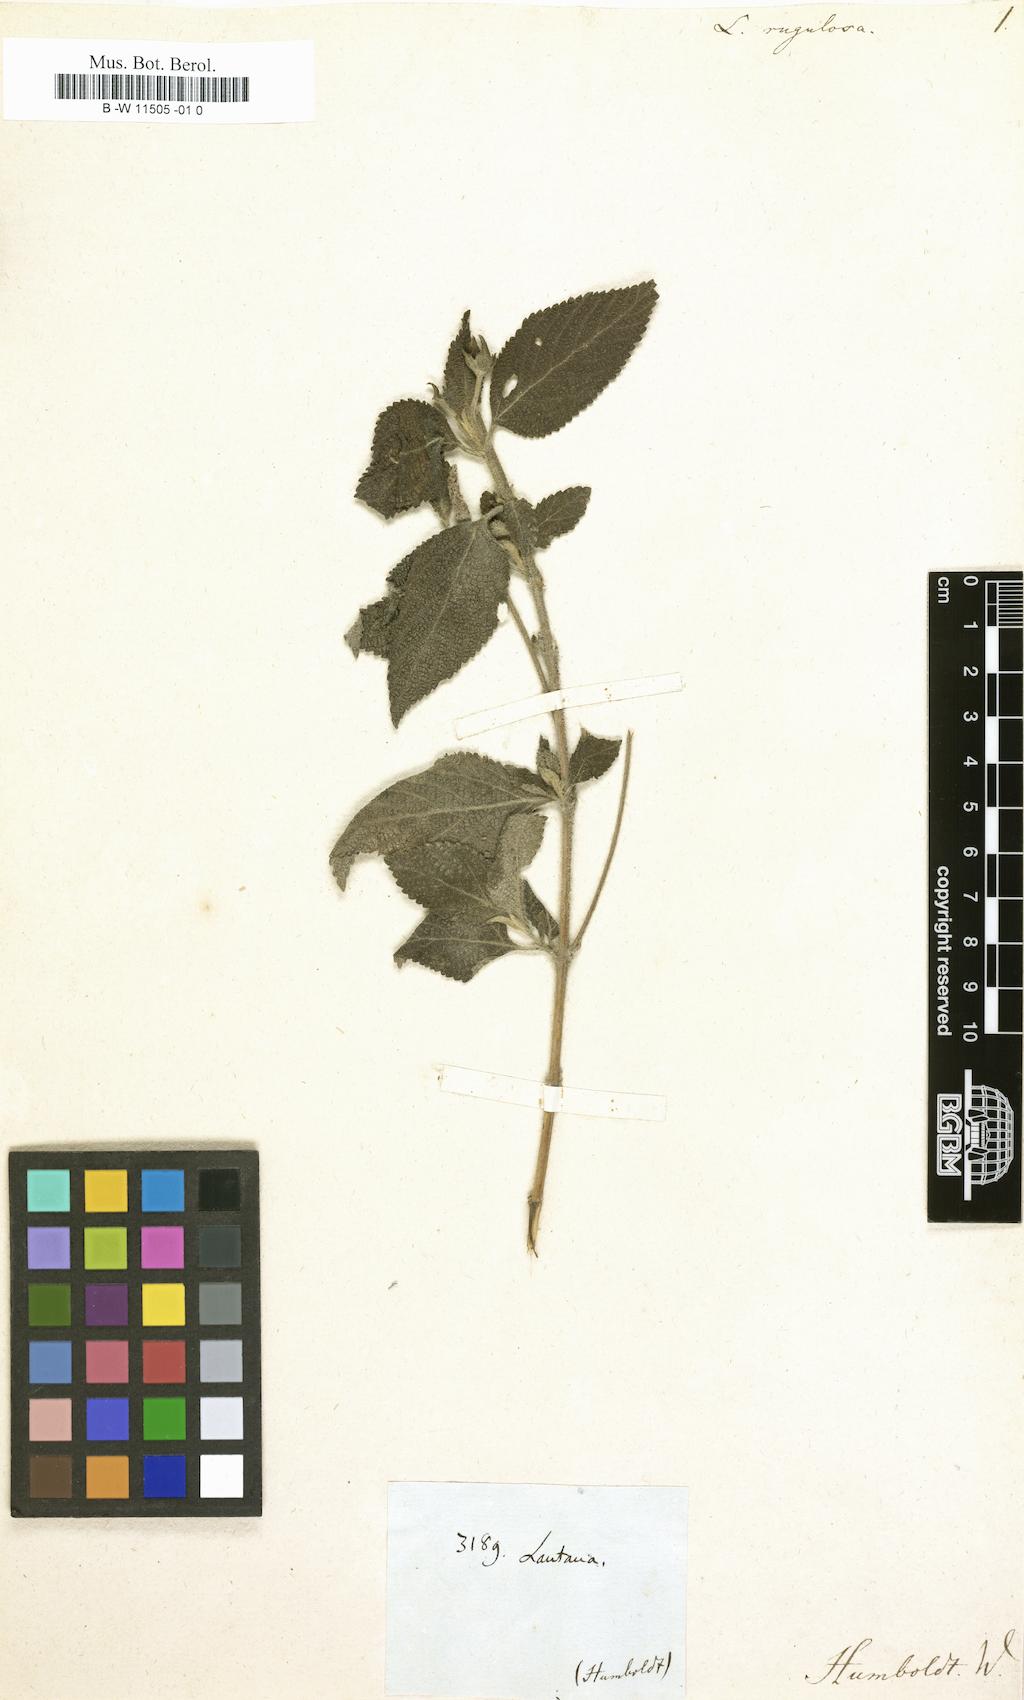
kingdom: Plantae
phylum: Tracheophyta
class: Magnoliopsida
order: Lamiales
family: Verbenaceae
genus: Lantana
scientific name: Lantana rugulosa
